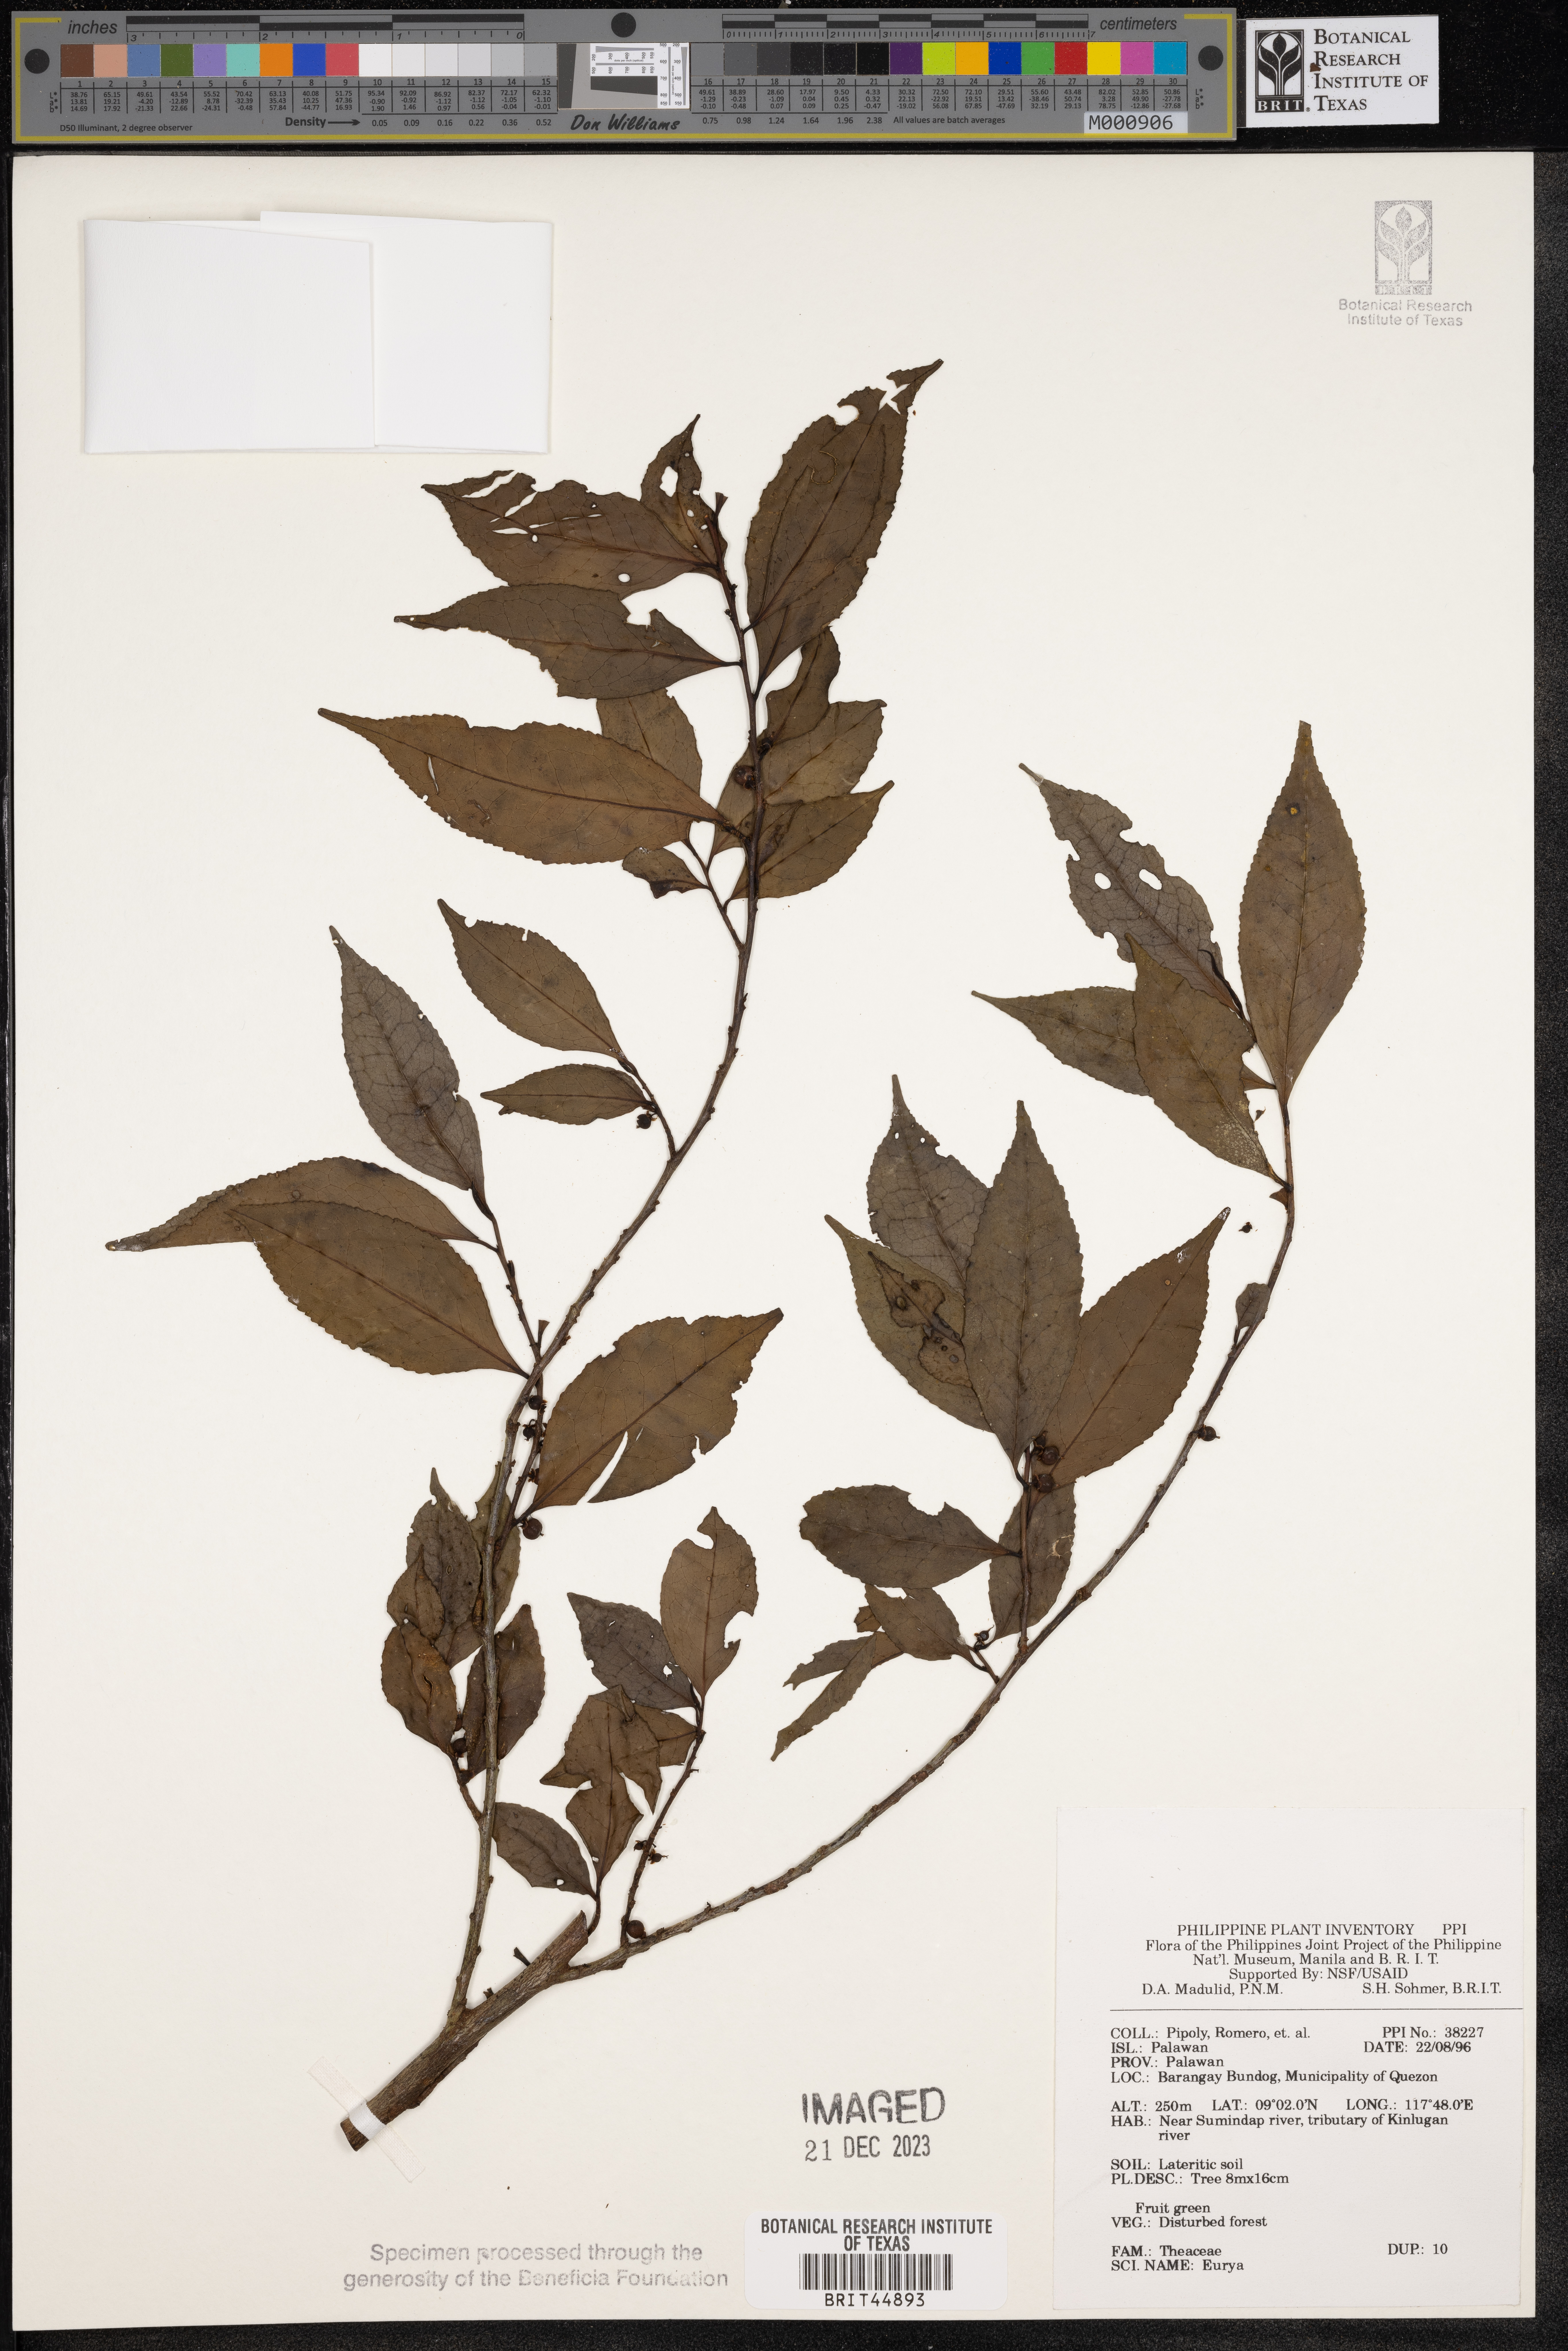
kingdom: Plantae
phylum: Tracheophyta
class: Magnoliopsida
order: Ericales
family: Pentaphylacaceae
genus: Eurya
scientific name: Eurya
